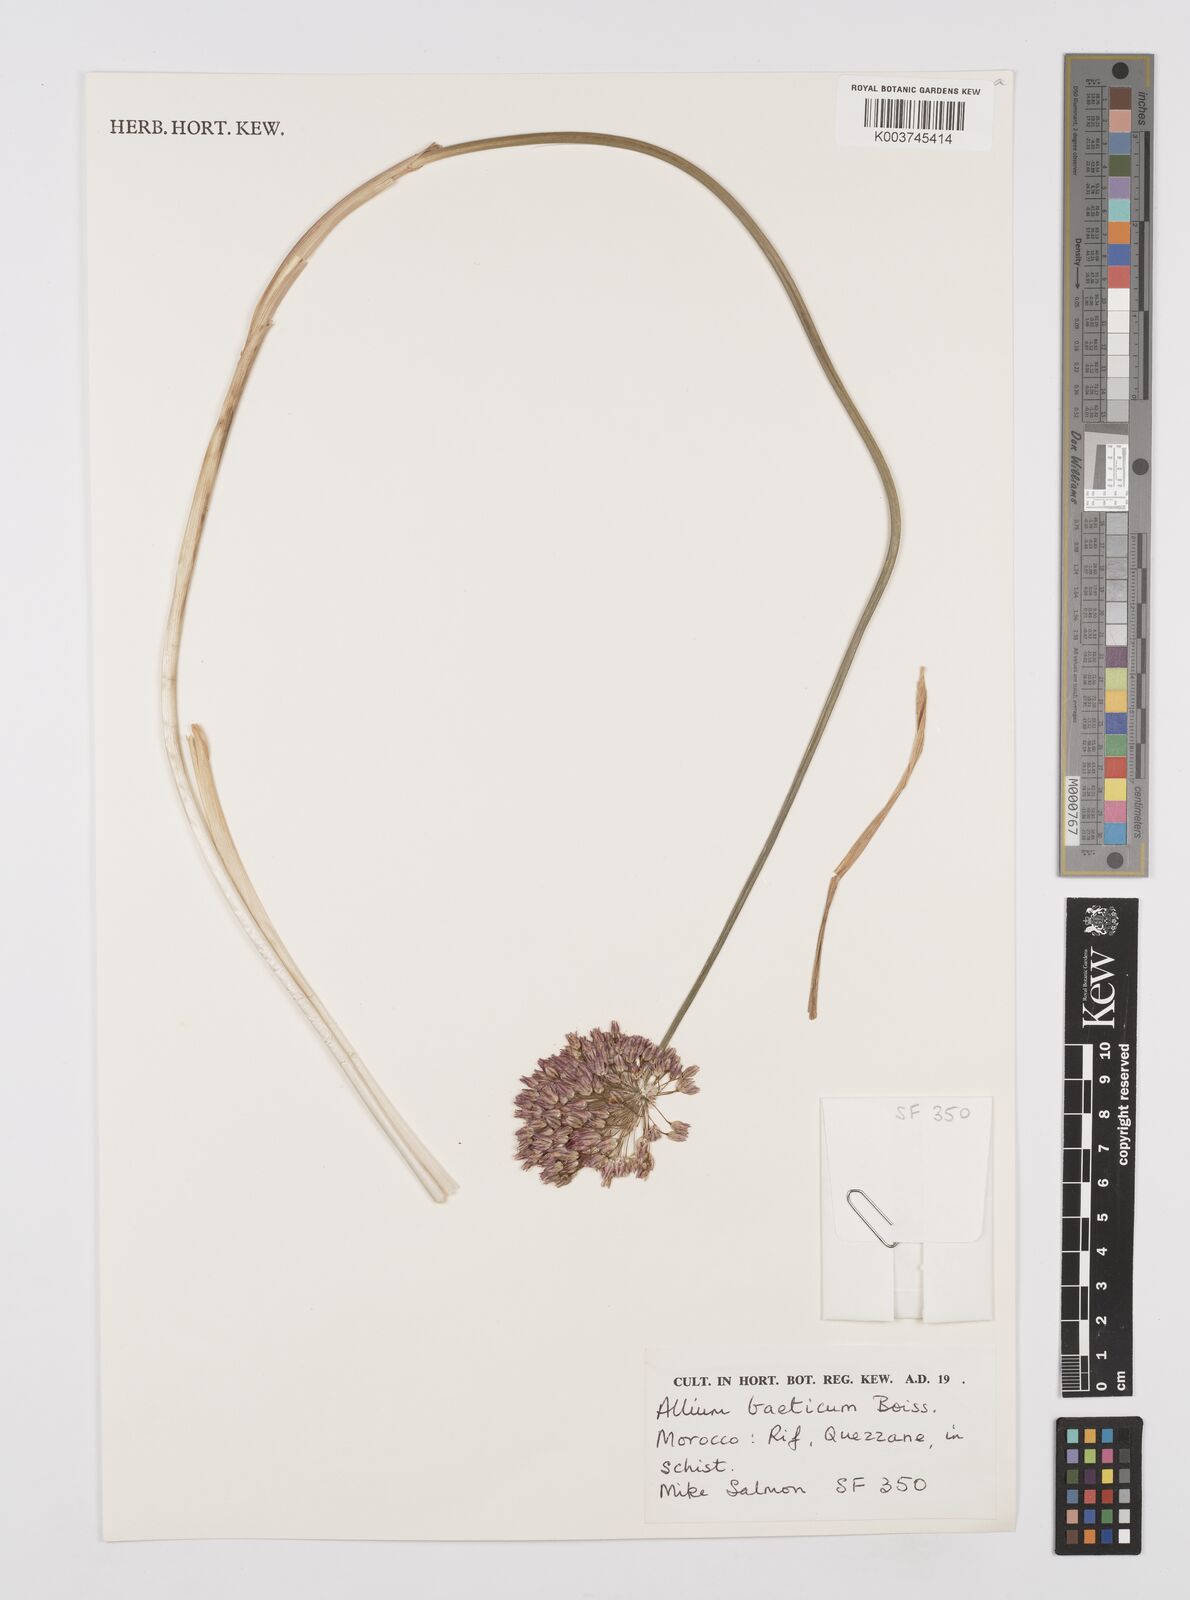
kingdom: Plantae
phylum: Tracheophyta
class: Liliopsida
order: Asparagales
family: Amaryllidaceae
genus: Allium
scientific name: Allium baeticum
